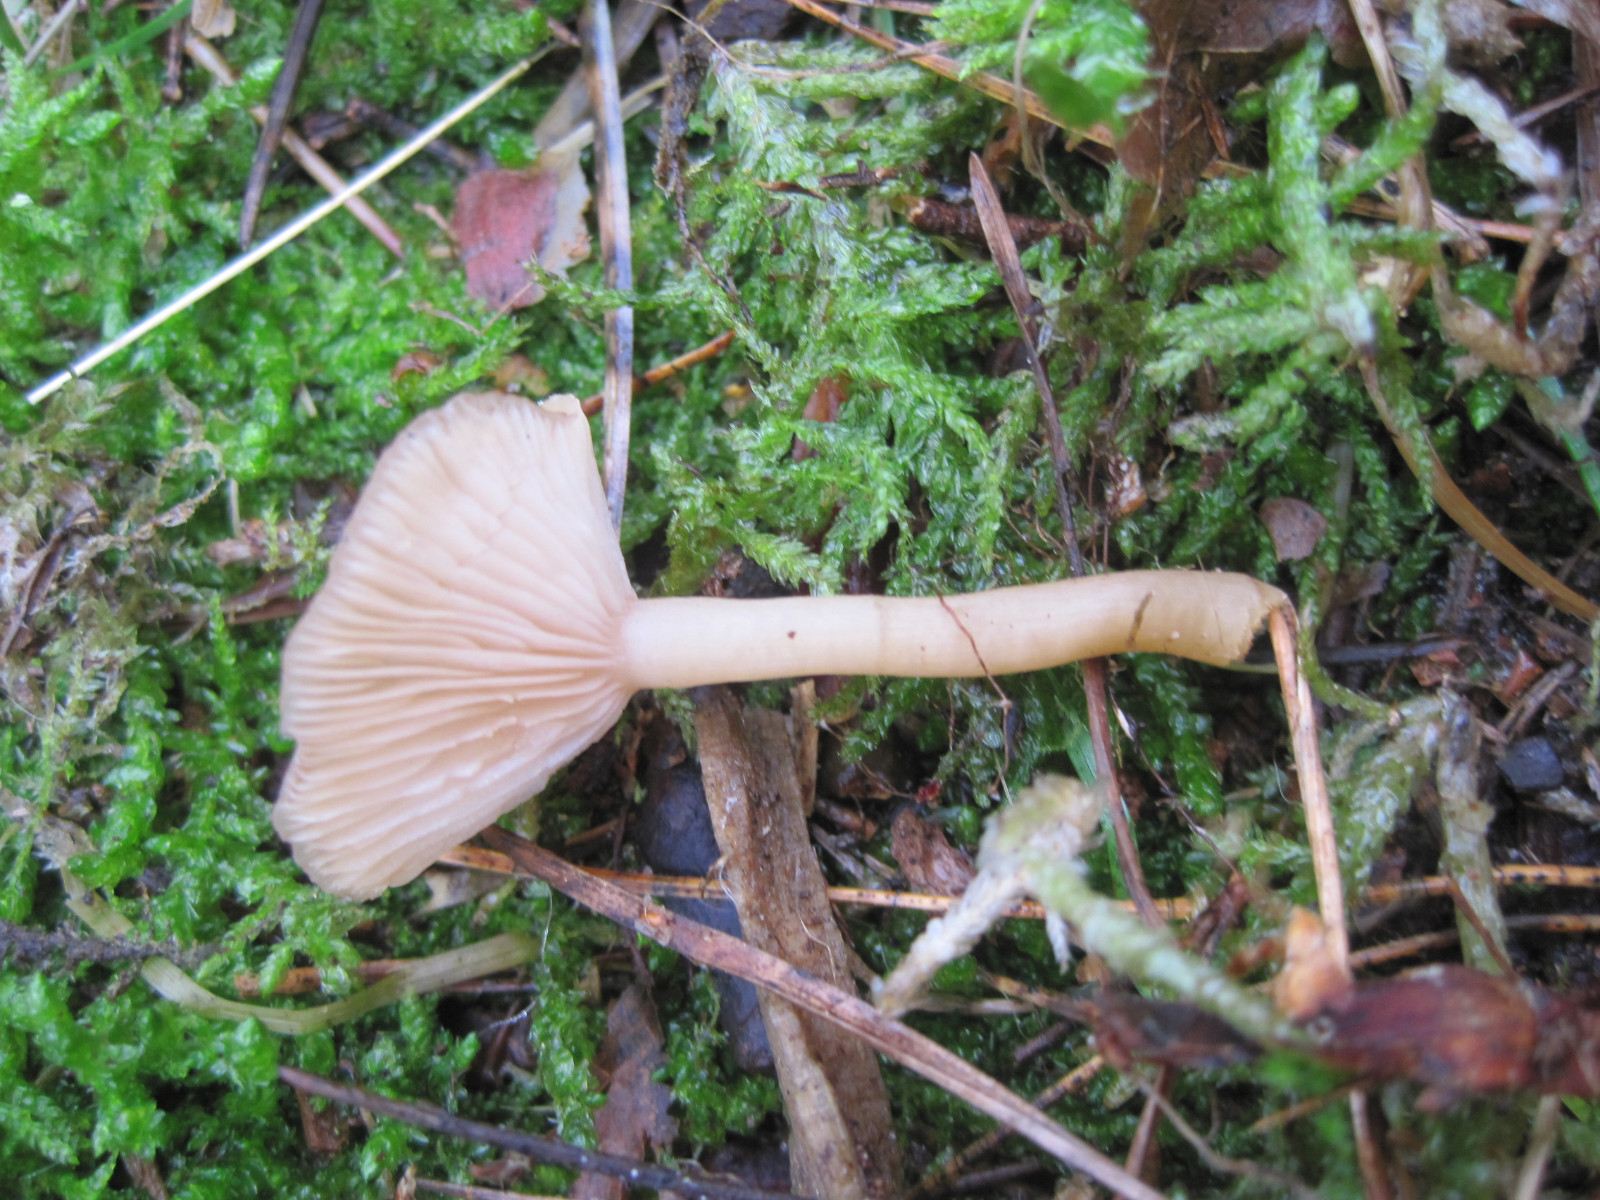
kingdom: Fungi
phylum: Basidiomycota
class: Agaricomycetes
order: Agaricales
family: Tricholomataceae
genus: Clitocybe
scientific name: Clitocybe fragrans
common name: vellugtende tragthat
